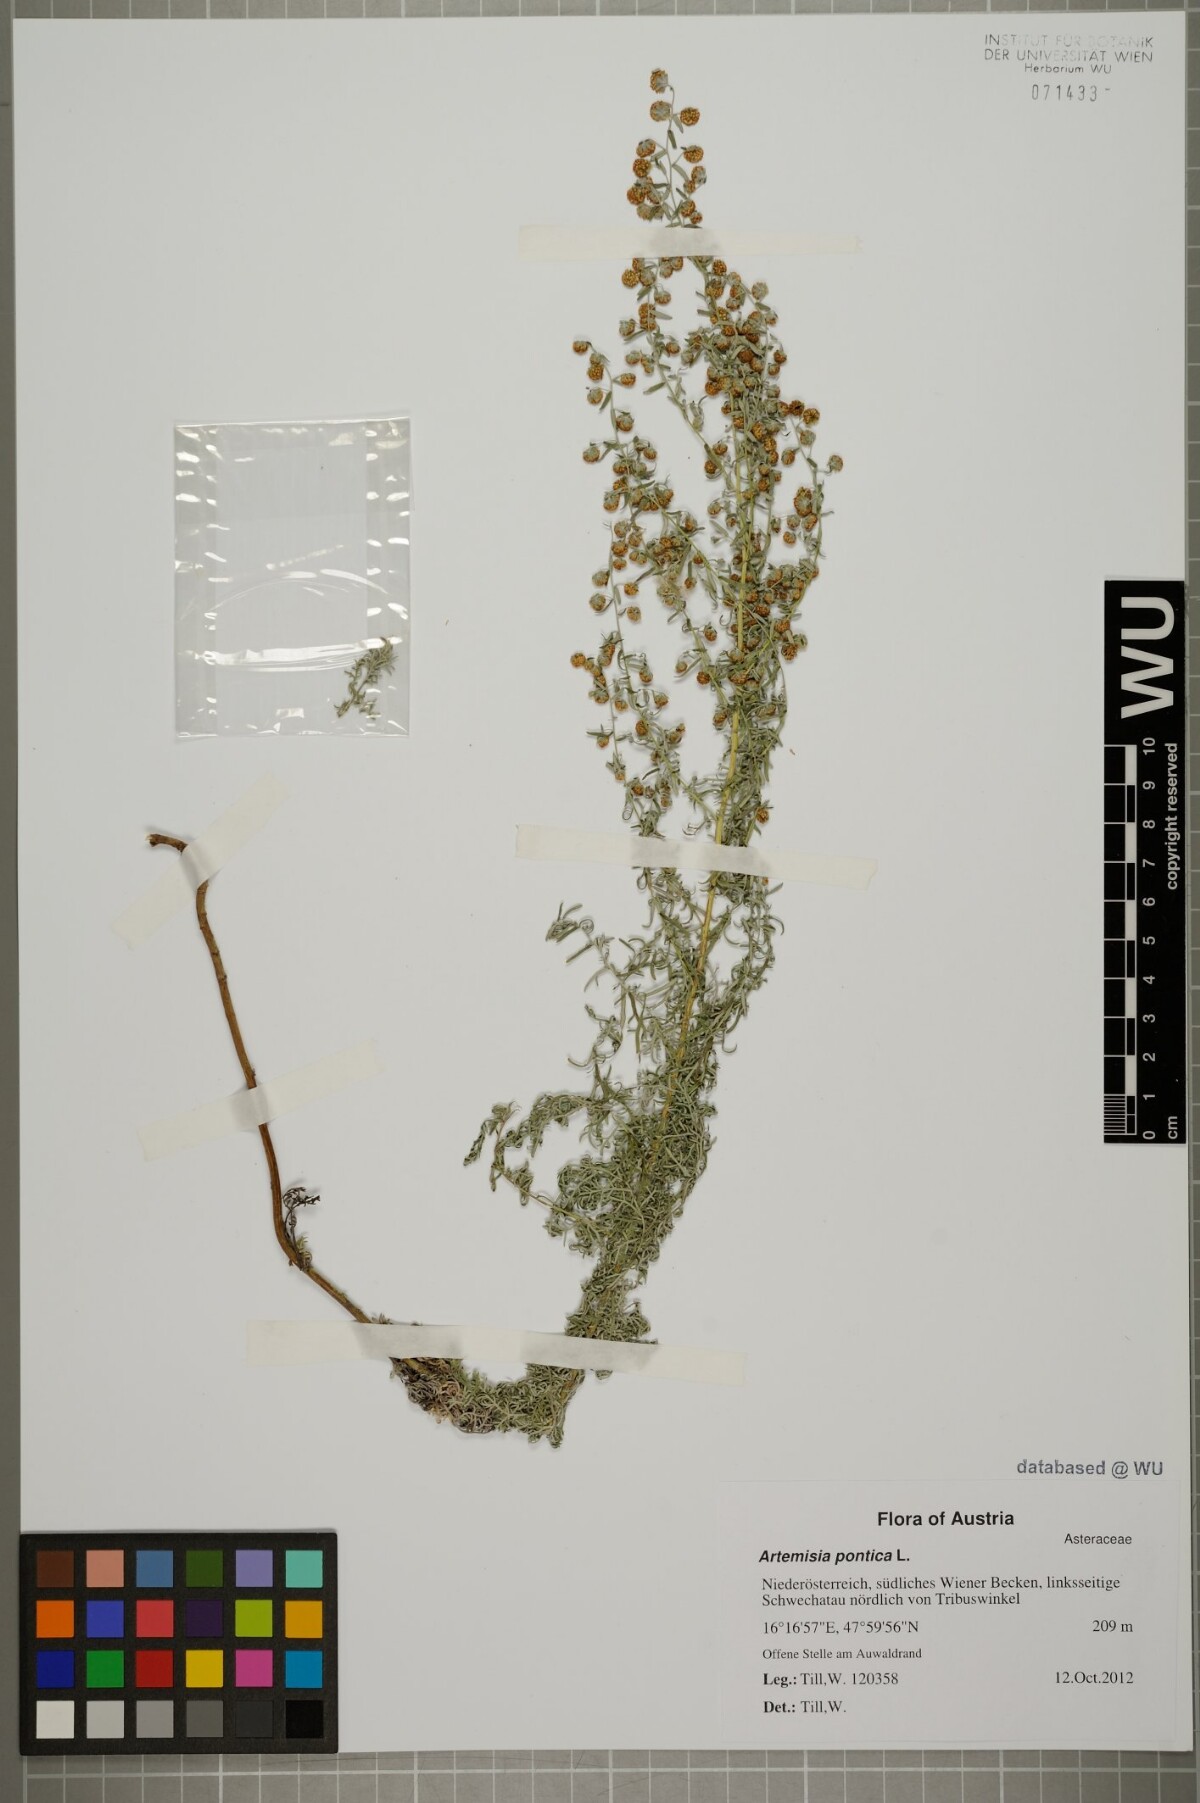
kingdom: Plantae
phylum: Tracheophyta
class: Magnoliopsida
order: Asterales
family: Asteraceae
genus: Artemisia
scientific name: Artemisia pontica
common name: Roman wormwood
